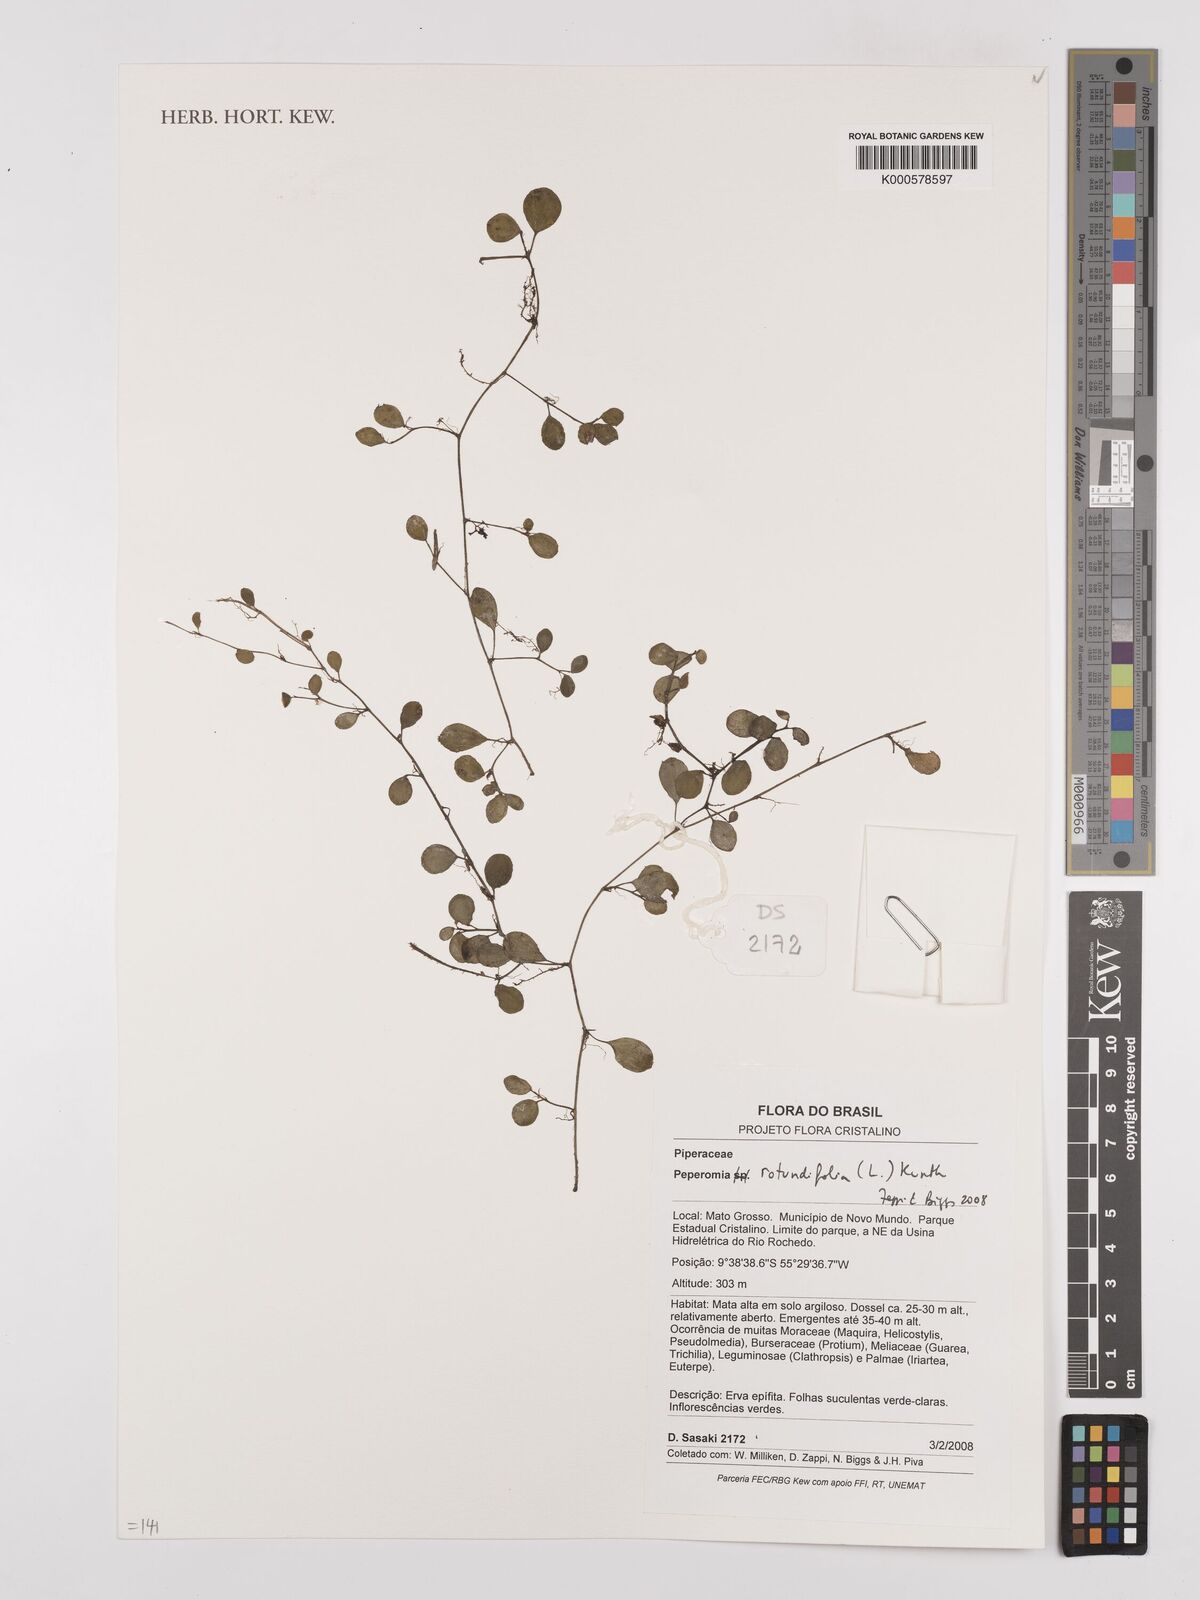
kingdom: Plantae
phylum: Tracheophyta
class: Magnoliopsida
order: Piperales
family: Piperaceae
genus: Peperomia
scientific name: Peperomia rotundifolia
